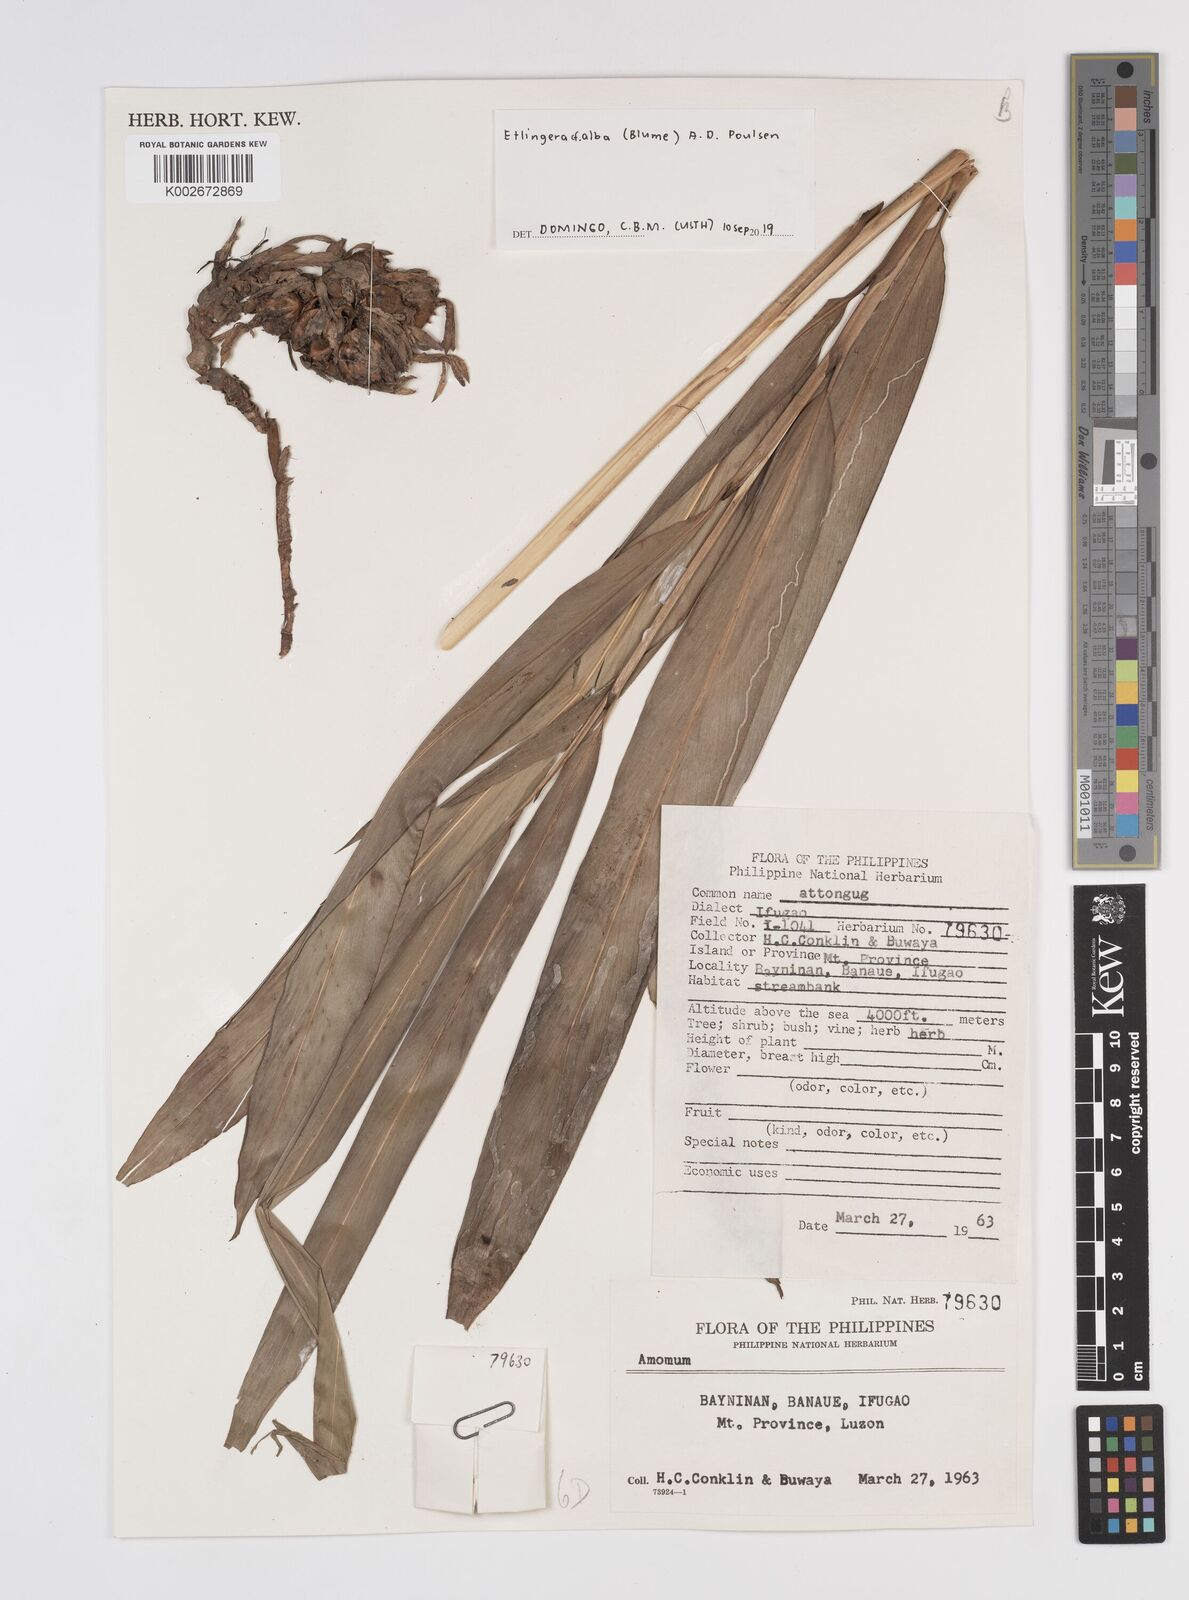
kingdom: Plantae
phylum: Tracheophyta
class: Liliopsida
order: Zingiberales
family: Zingiberaceae
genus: Etlingera
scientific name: Etlingera alba
